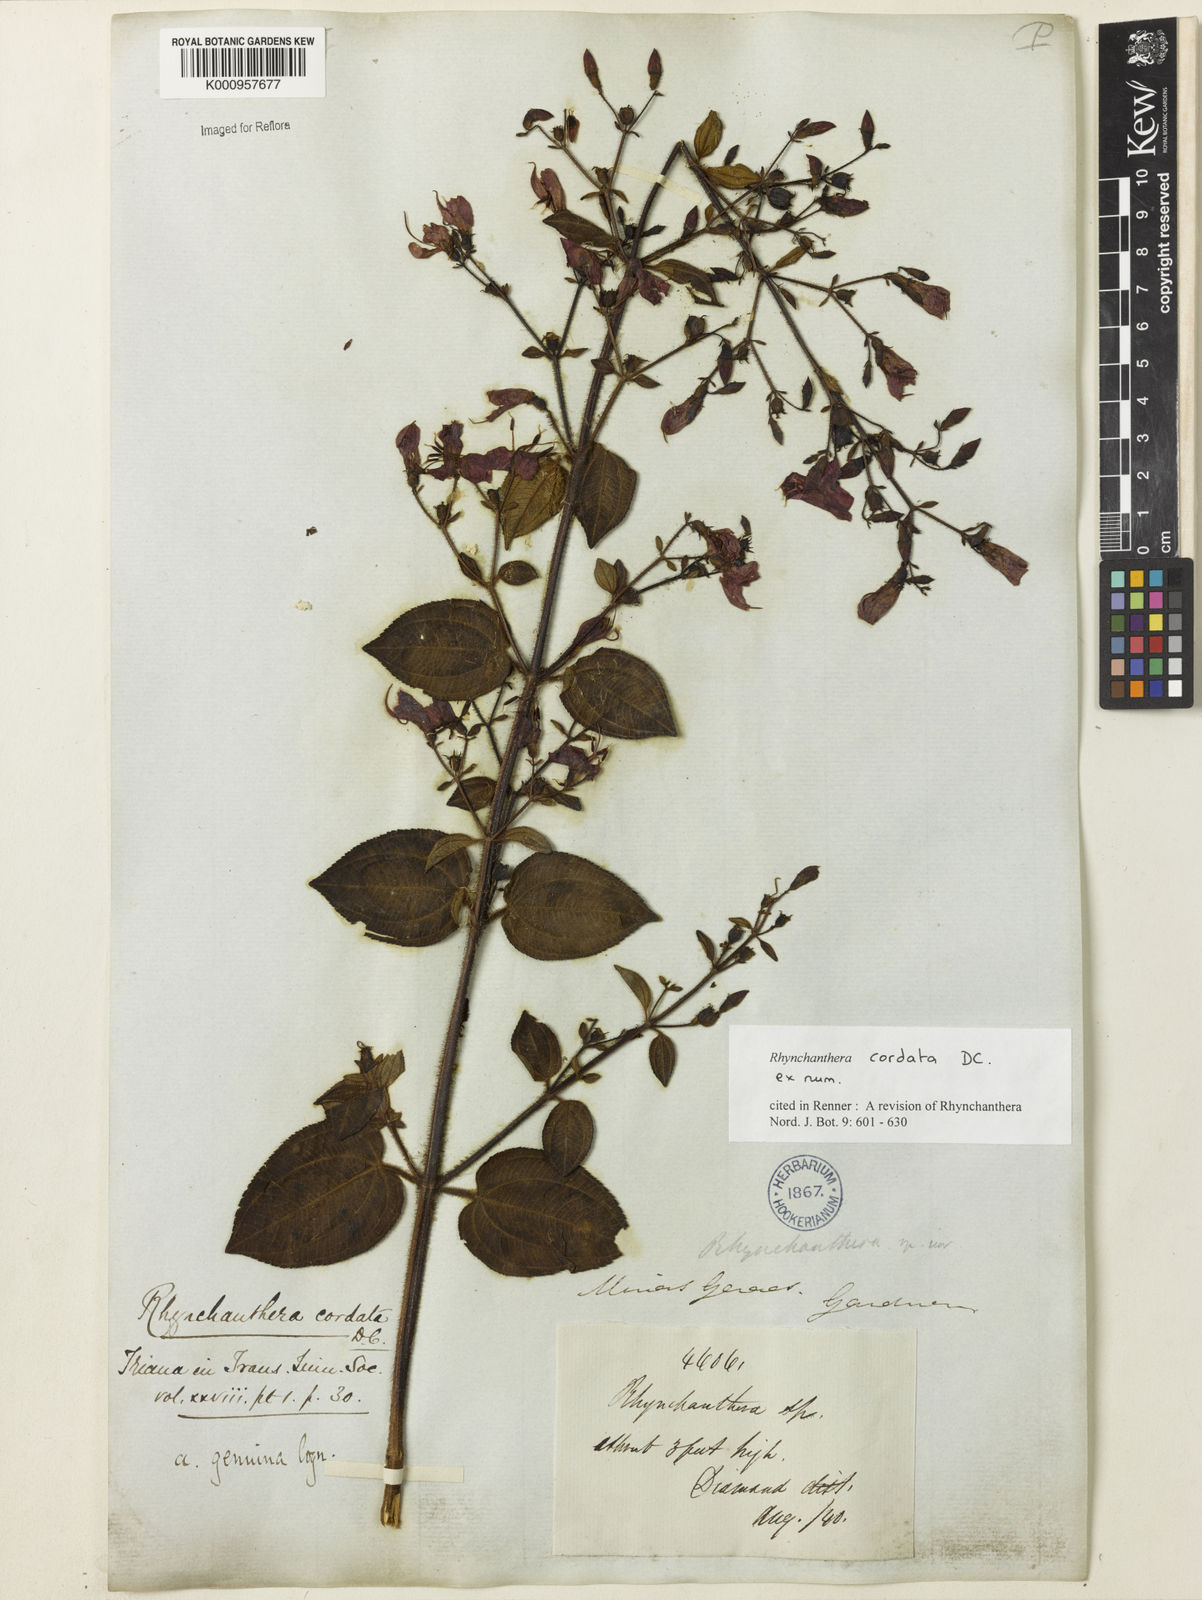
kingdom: Plantae
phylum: Tracheophyta
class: Magnoliopsida
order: Myrtales
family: Melastomataceae
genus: Rhynchanthera
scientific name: Rhynchanthera cordata
